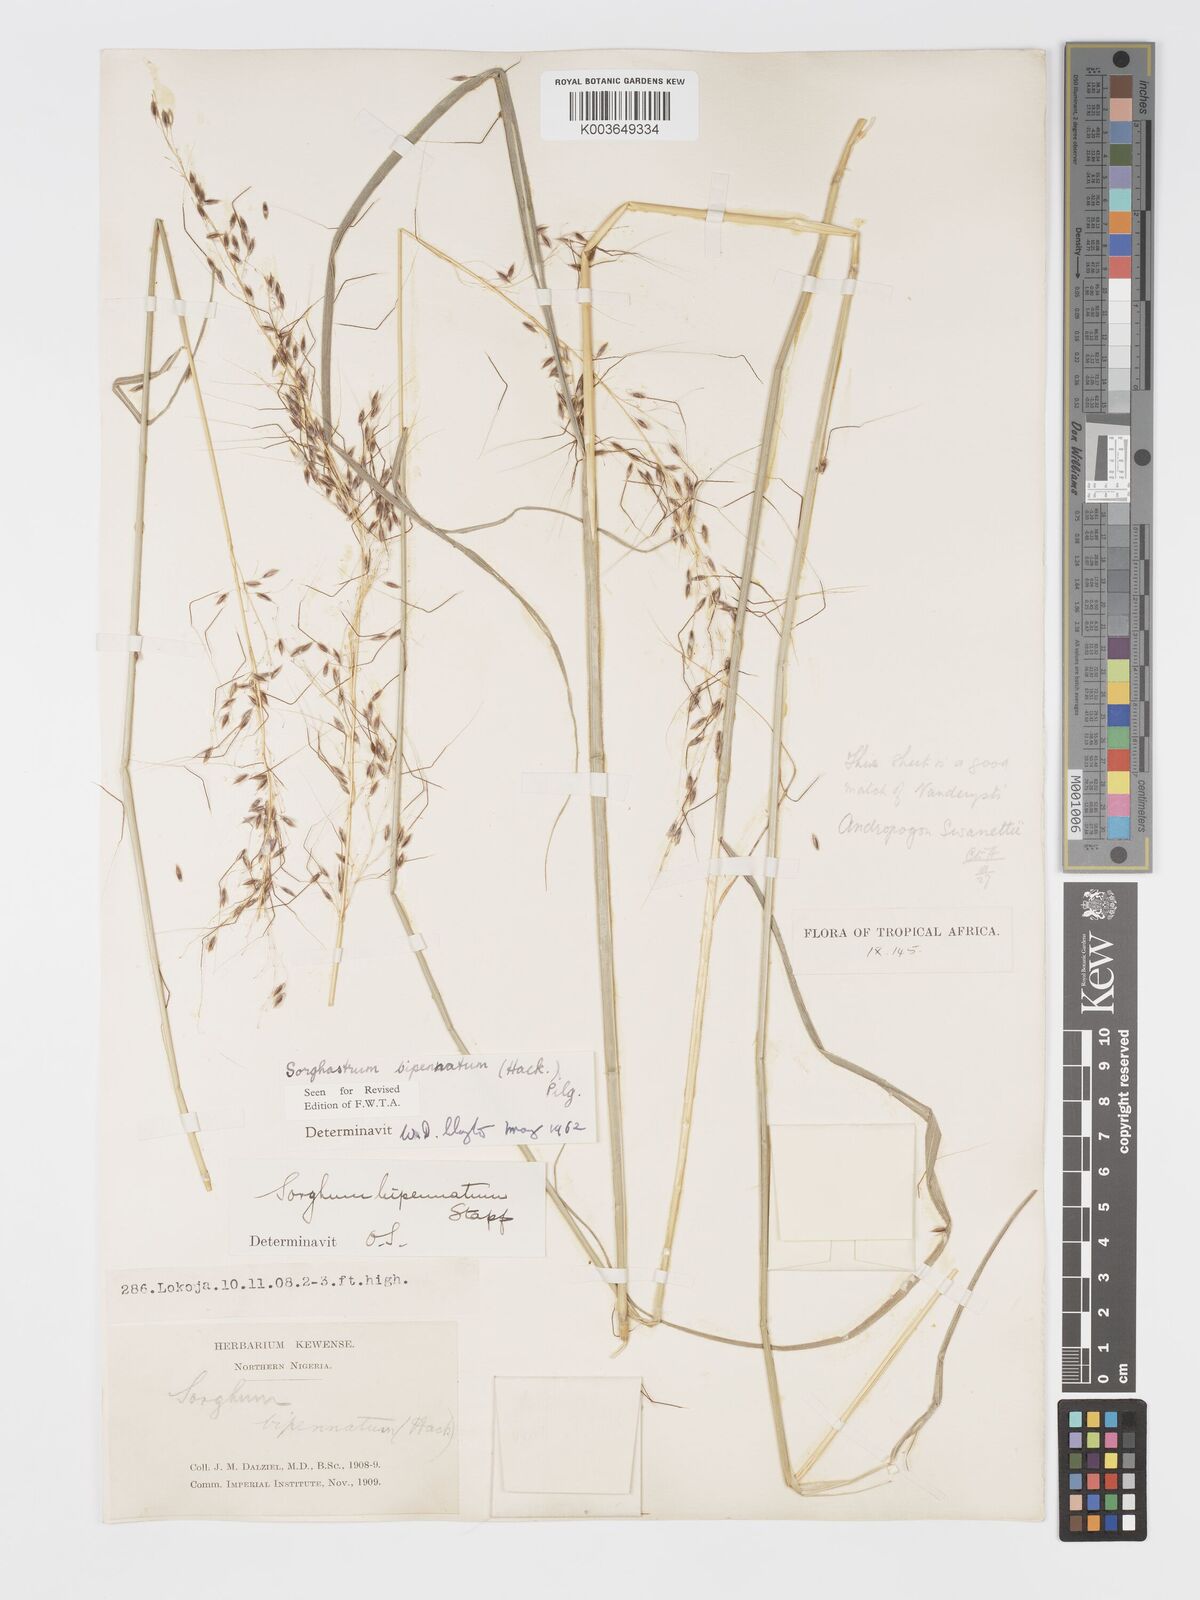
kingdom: Plantae
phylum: Tracheophyta
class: Liliopsida
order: Poales
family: Poaceae
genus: Sorghastrum
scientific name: Sorghastrum incompletum
